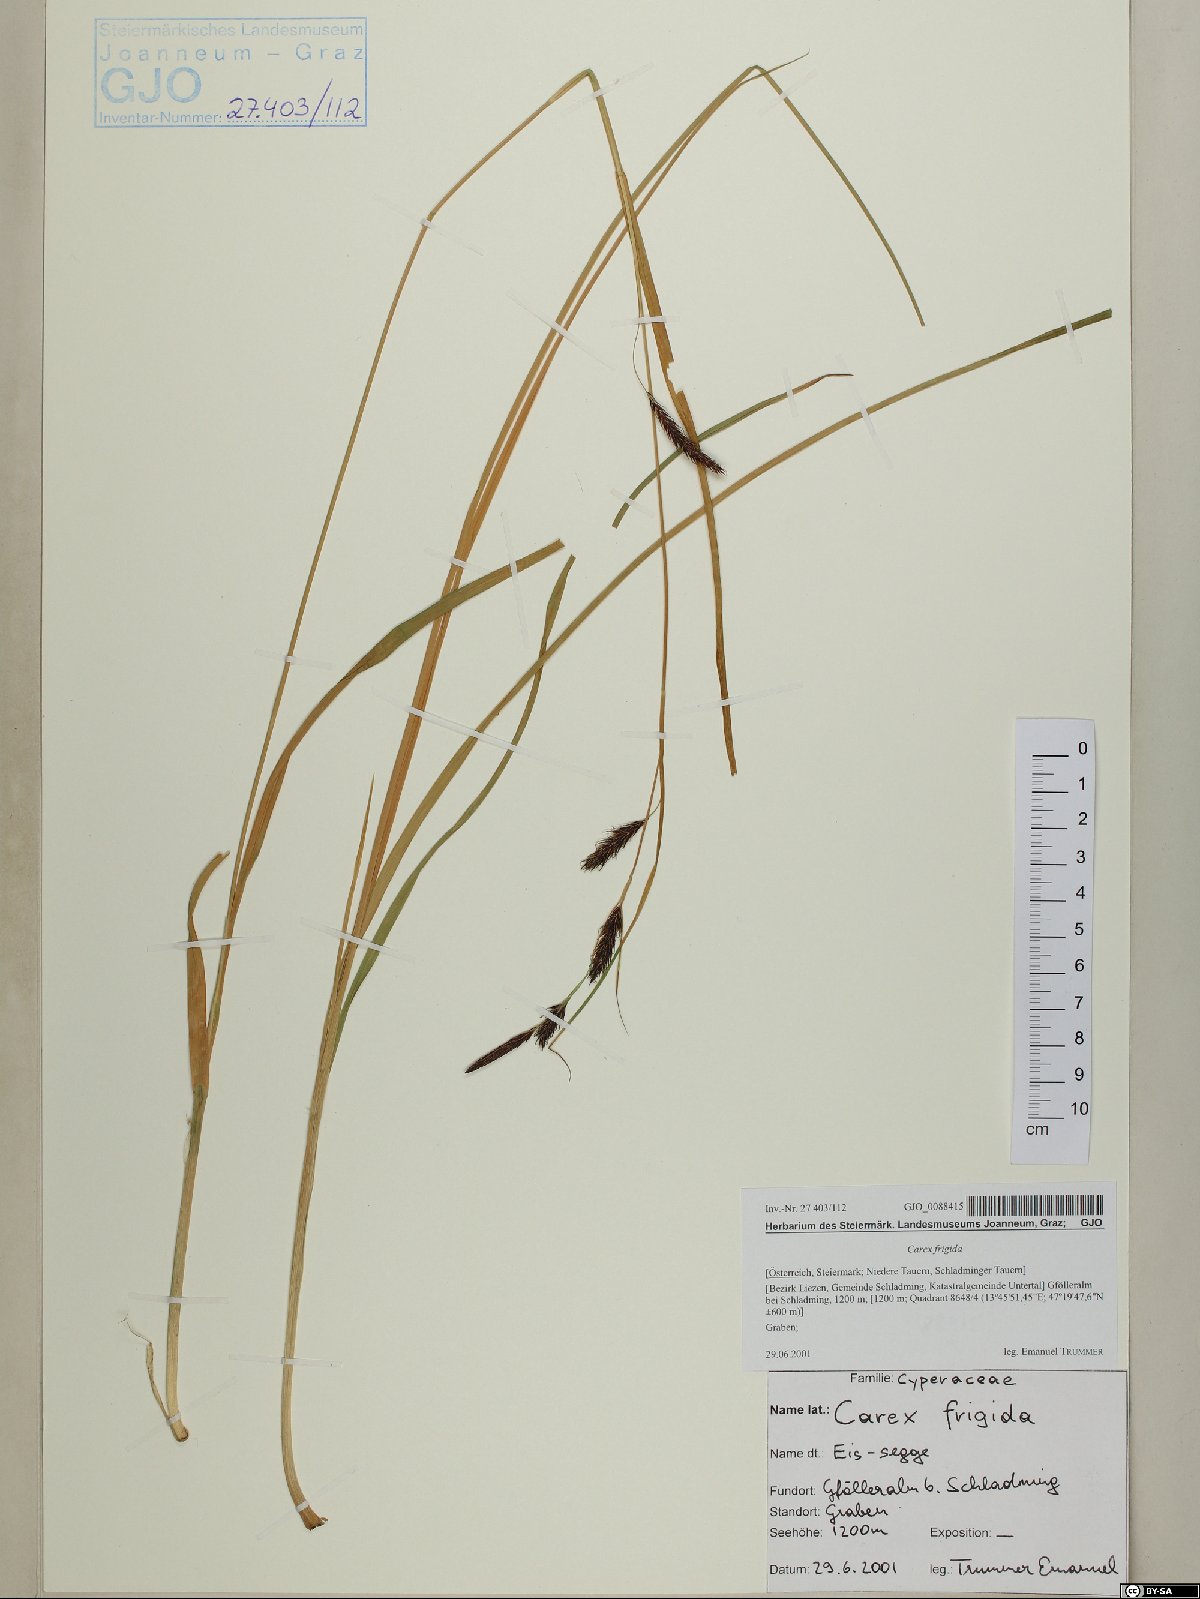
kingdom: Plantae
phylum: Tracheophyta
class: Liliopsida
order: Poales
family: Cyperaceae
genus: Carex
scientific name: Carex frigida
